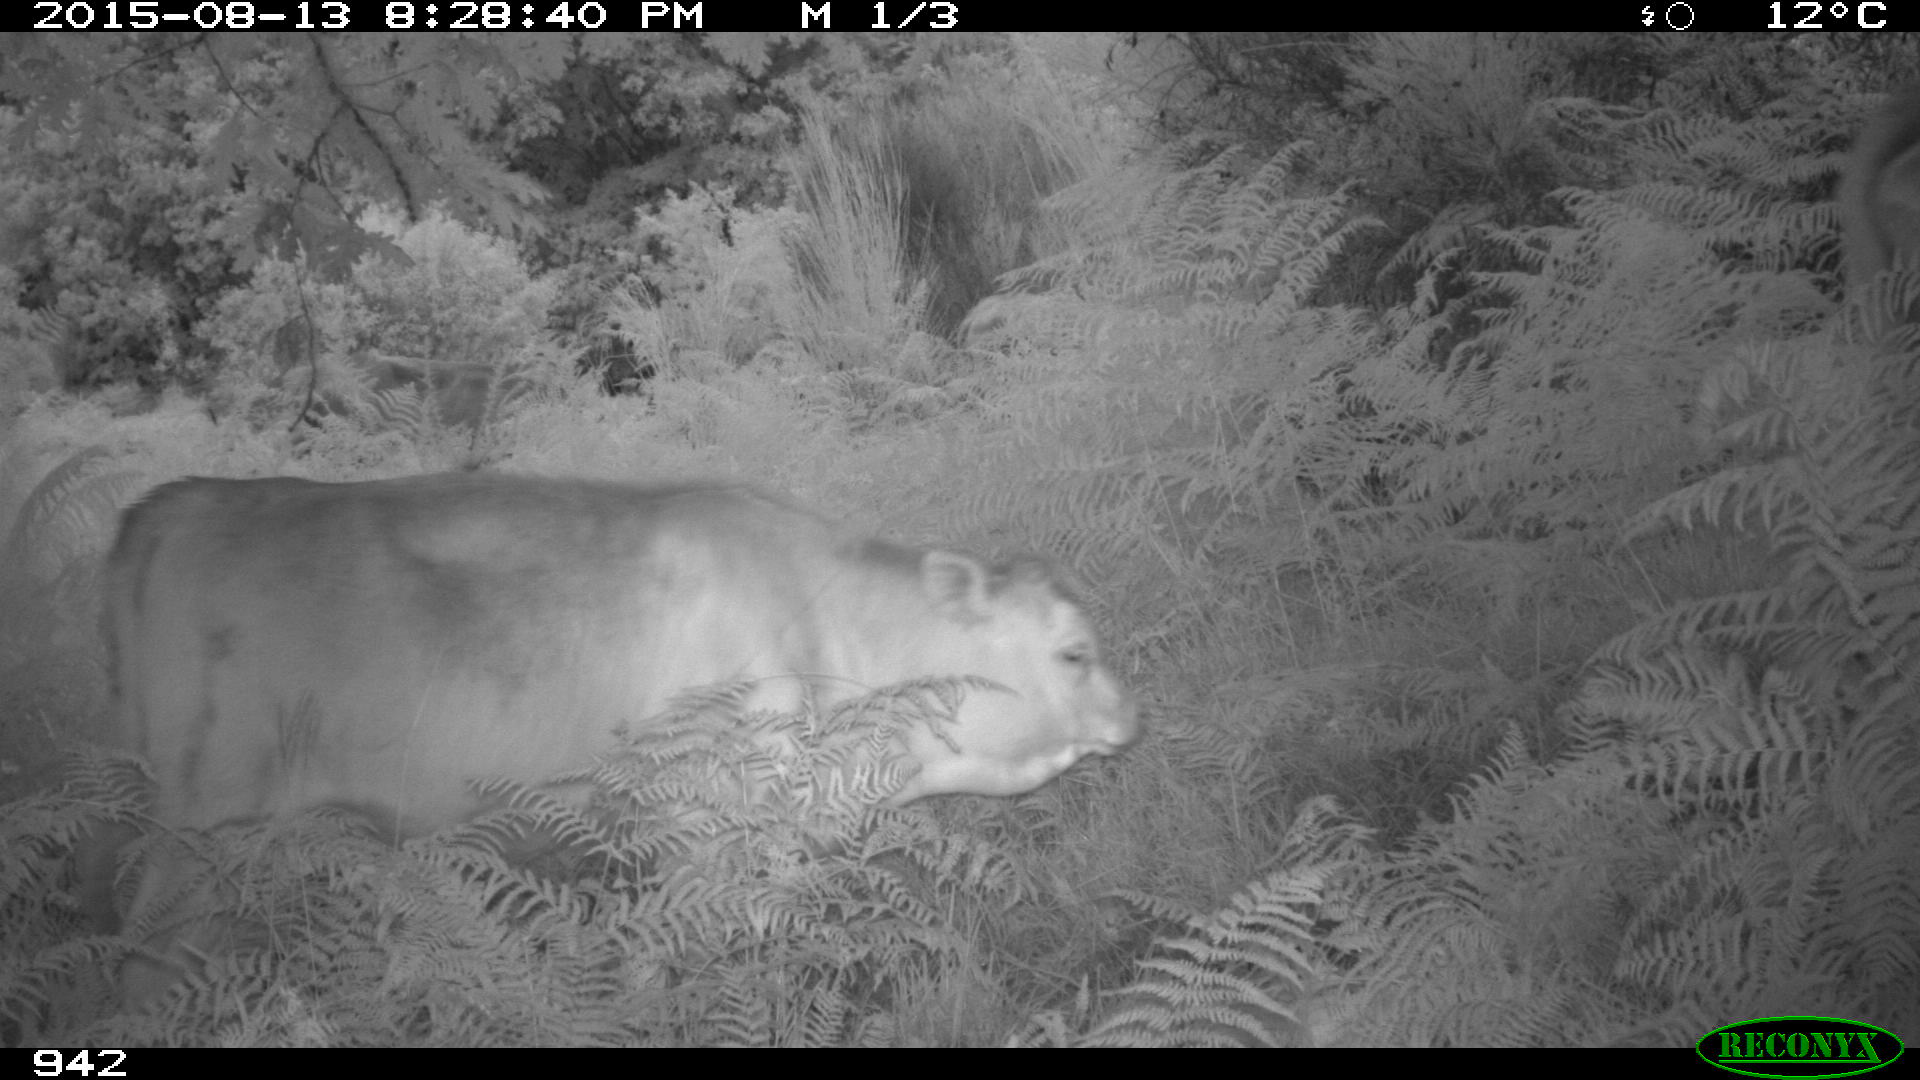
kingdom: Animalia
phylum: Chordata
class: Mammalia
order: Artiodactyla
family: Bovidae
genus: Bos
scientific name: Bos taurus
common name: Domesticated cattle
